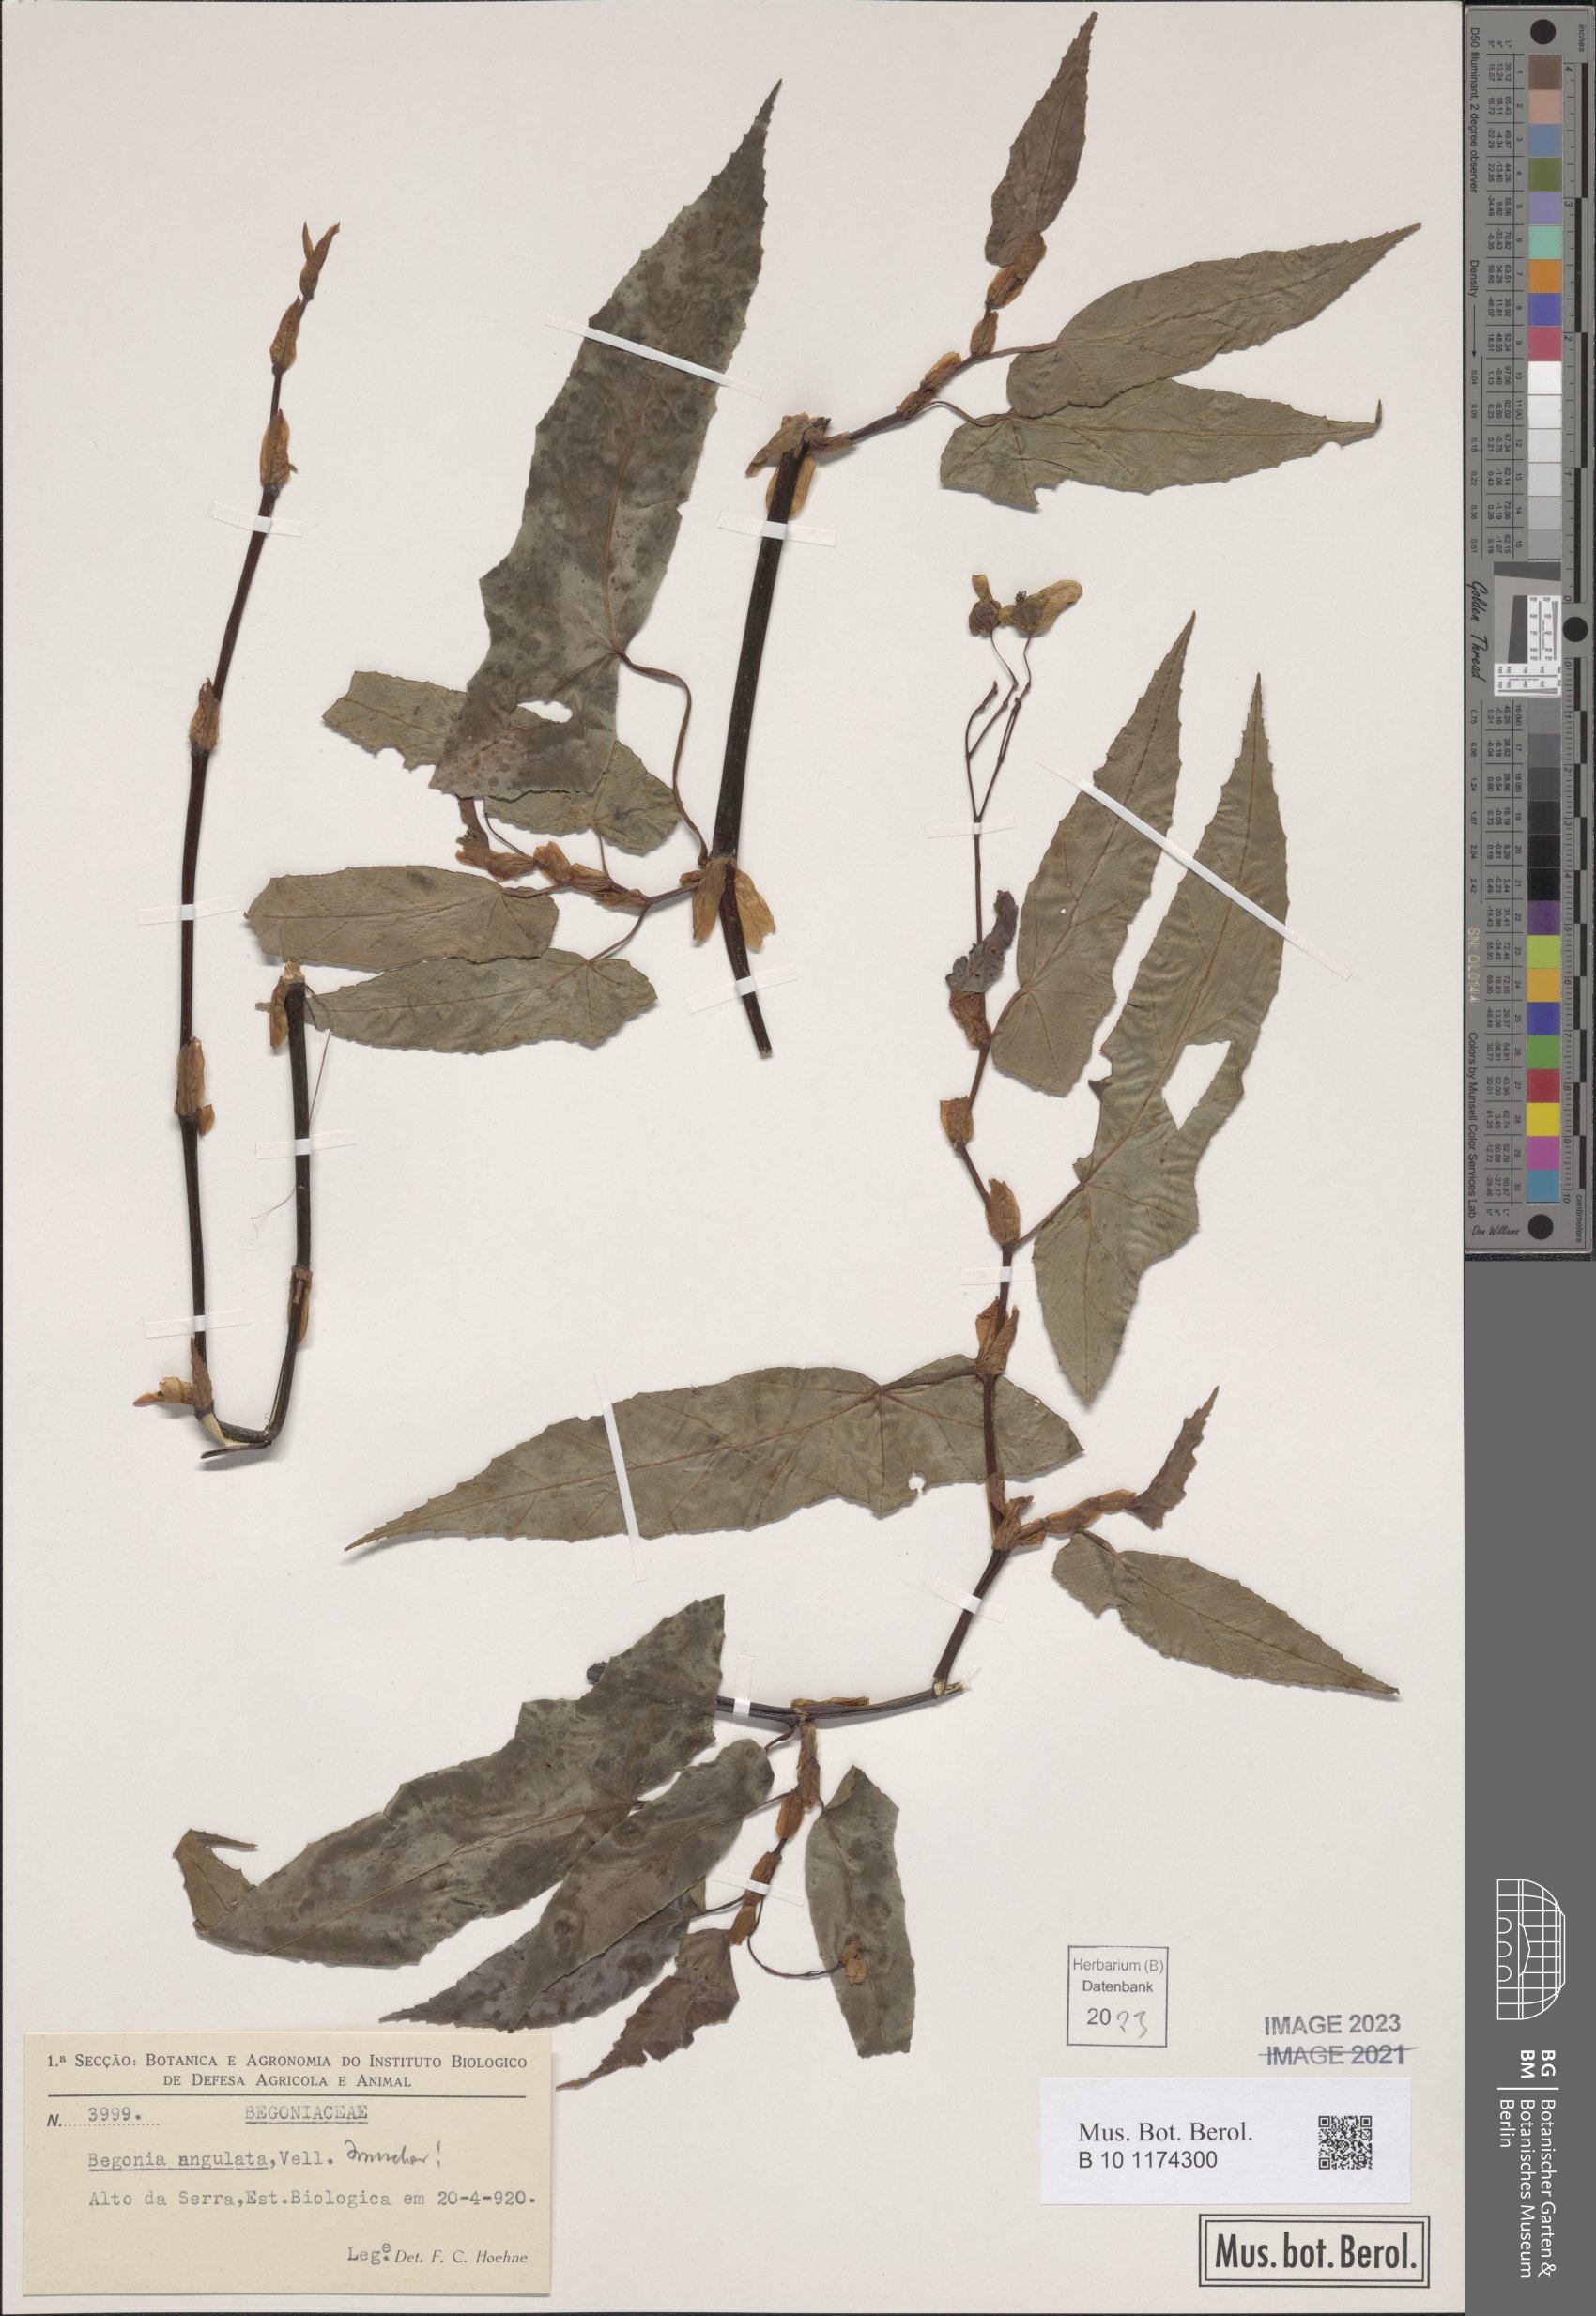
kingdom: Plantae
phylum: Tracheophyta
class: Magnoliopsida
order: Cucurbitales
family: Begoniaceae
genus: Begonia
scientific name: Begonia angulata
